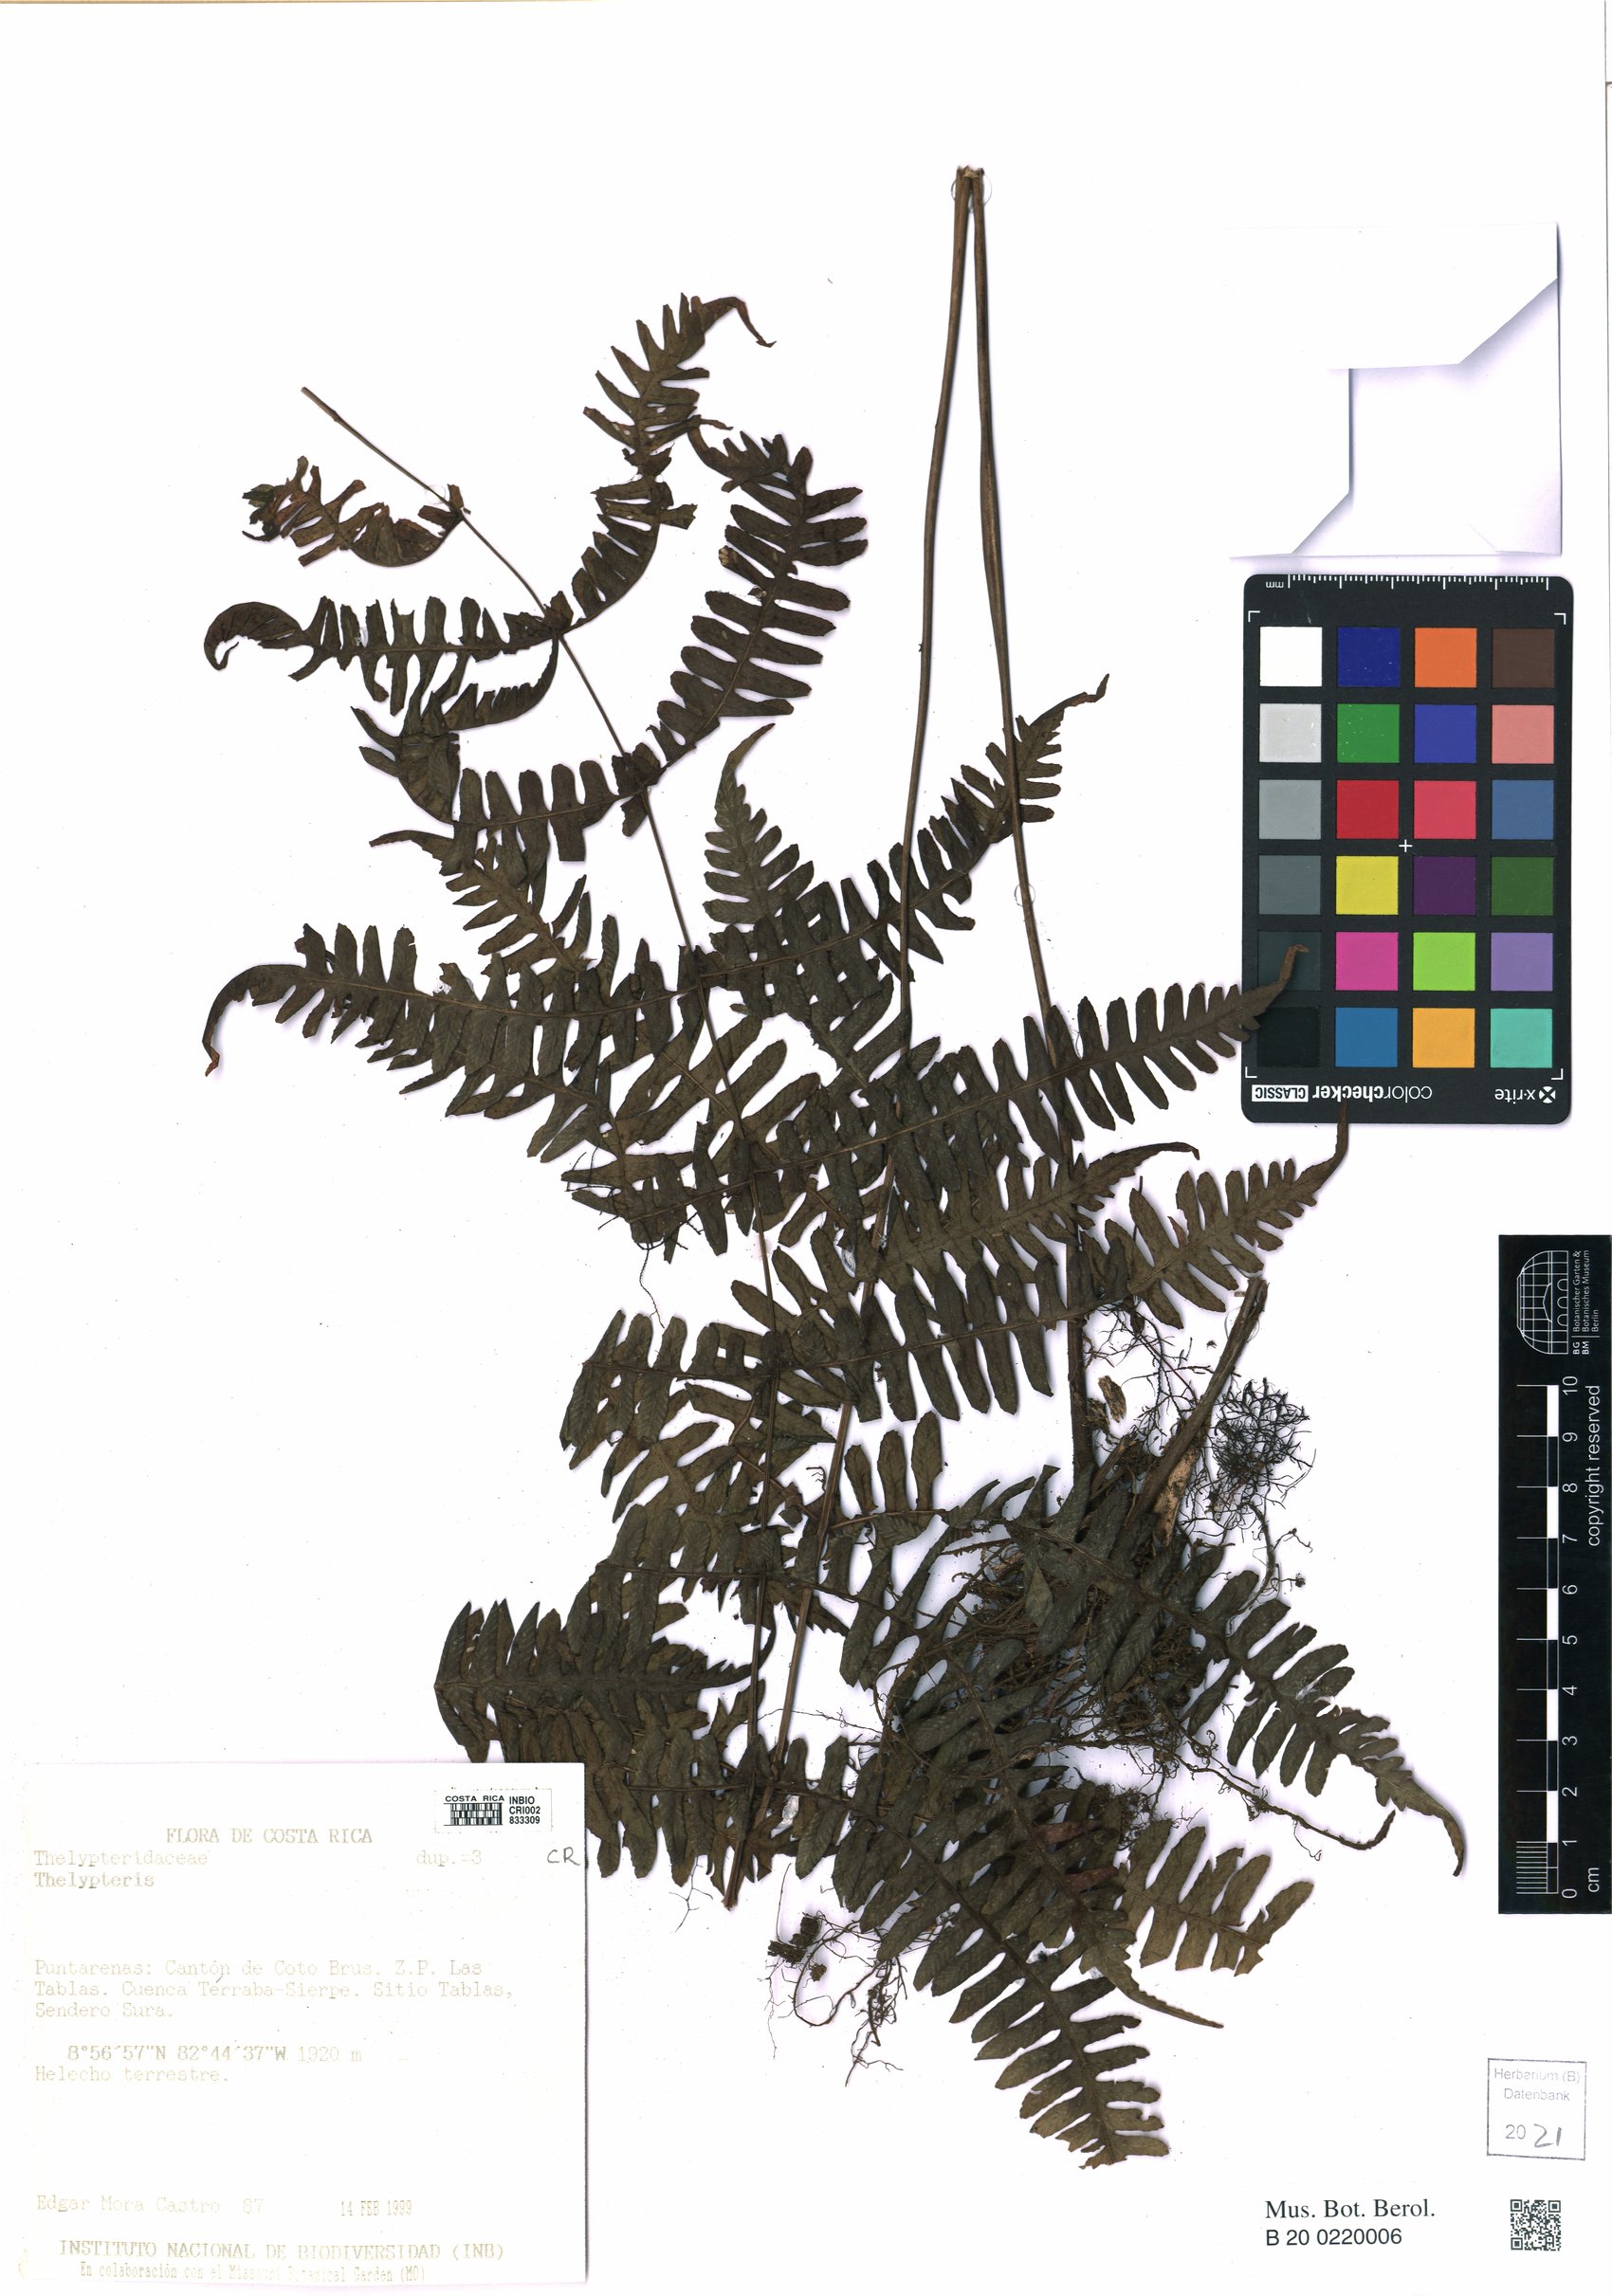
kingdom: Plantae
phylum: Tracheophyta
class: Polypodiopsida
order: Polypodiales
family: Thelypteridaceae
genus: Thelypteris
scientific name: Thelypteris
